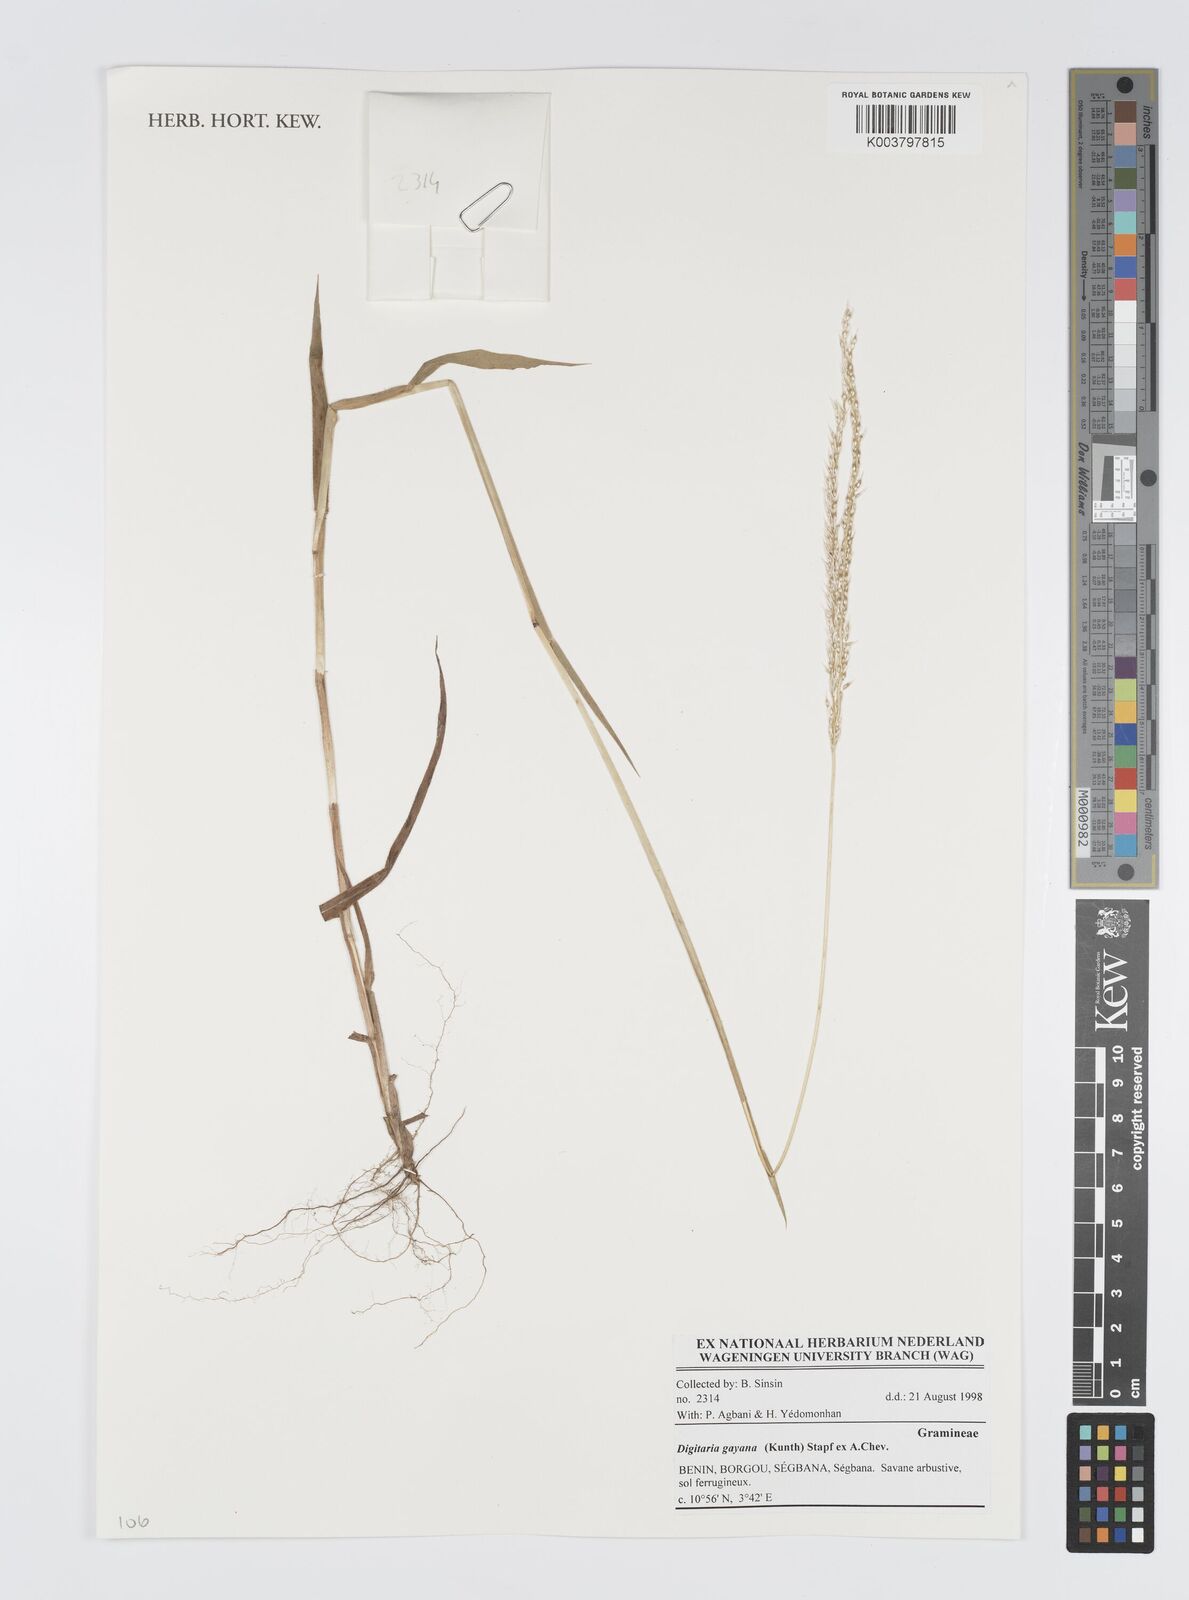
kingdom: Plantae
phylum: Tracheophyta
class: Liliopsida
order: Poales
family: Poaceae
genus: Digitaria
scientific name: Digitaria gayana
